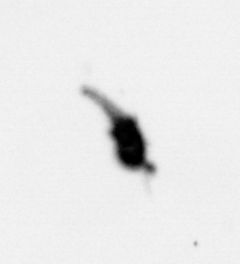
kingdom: Animalia
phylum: Arthropoda
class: Copepoda
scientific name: Copepoda
